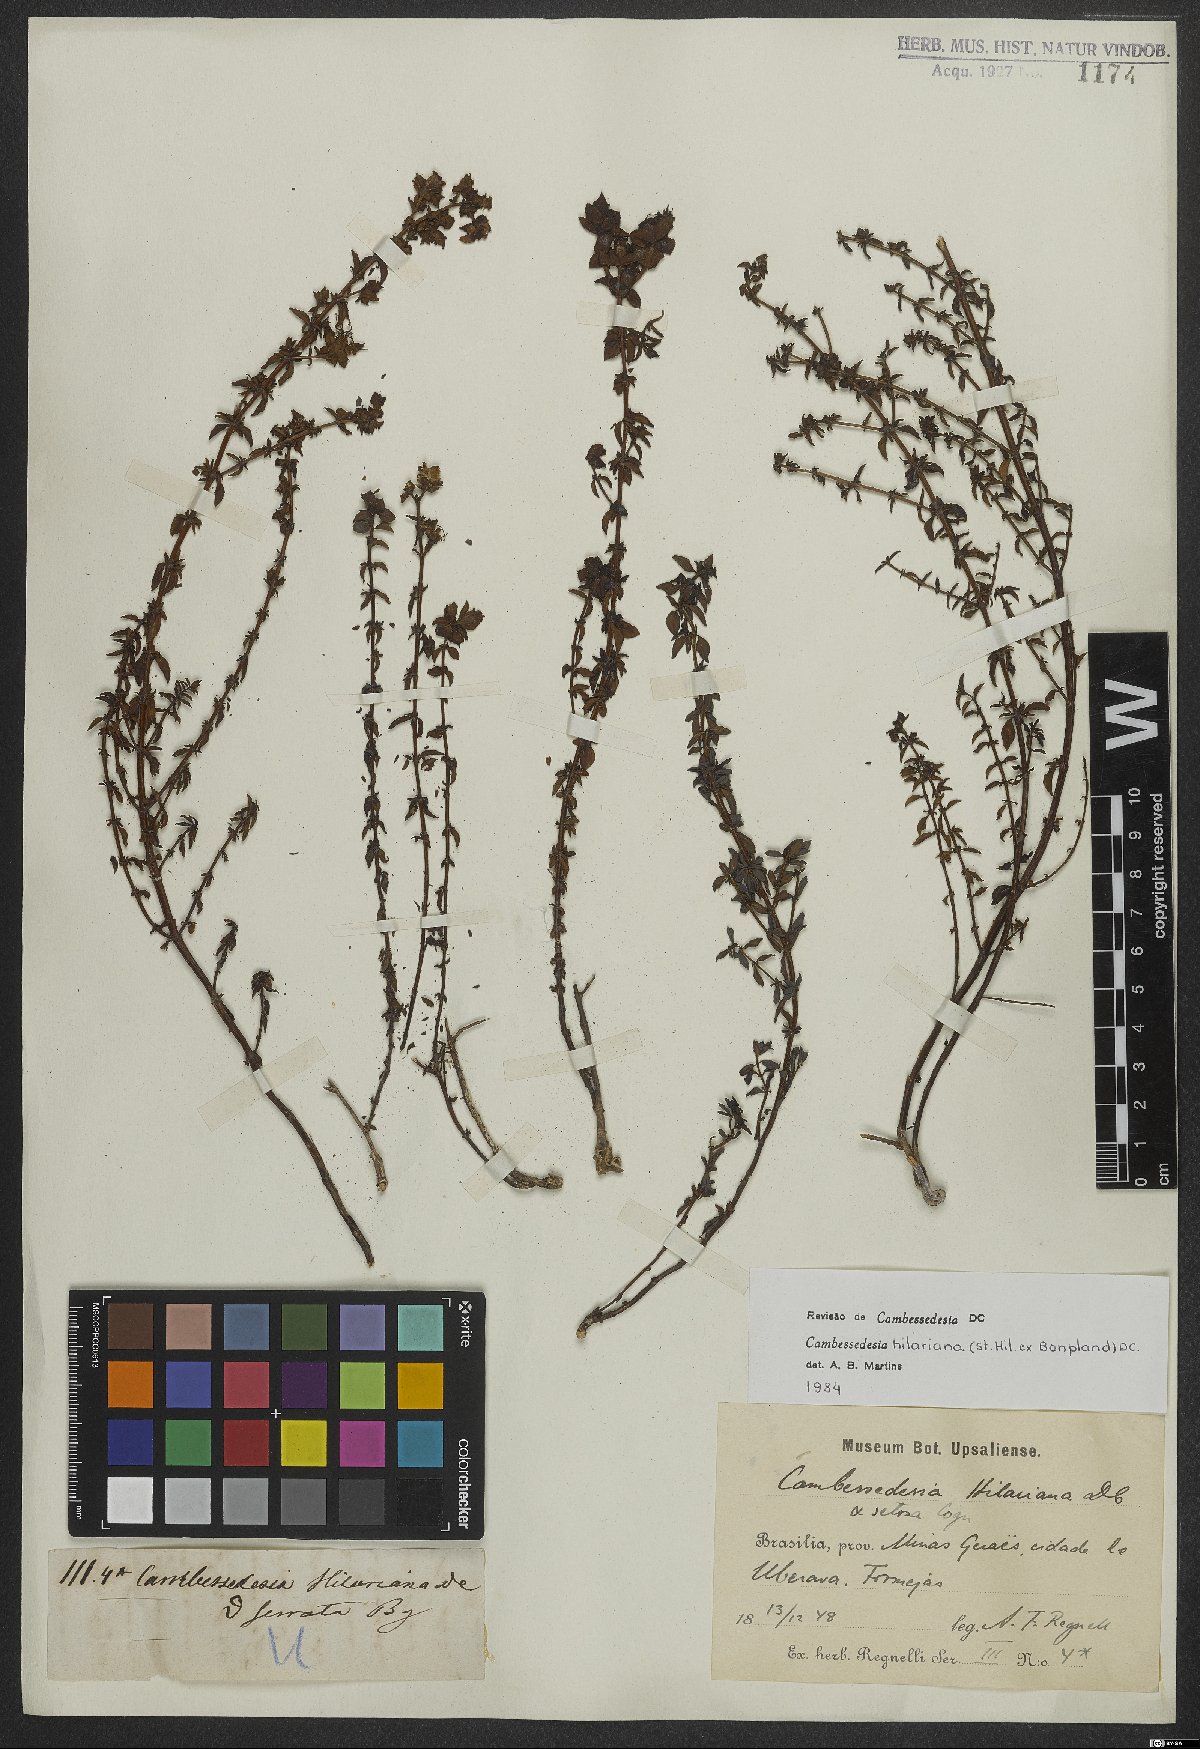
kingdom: Plantae
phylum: Tracheophyta
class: Magnoliopsida
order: Myrtales
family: Melastomataceae
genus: Cambessedesia
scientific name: Cambessedesia hilariana
